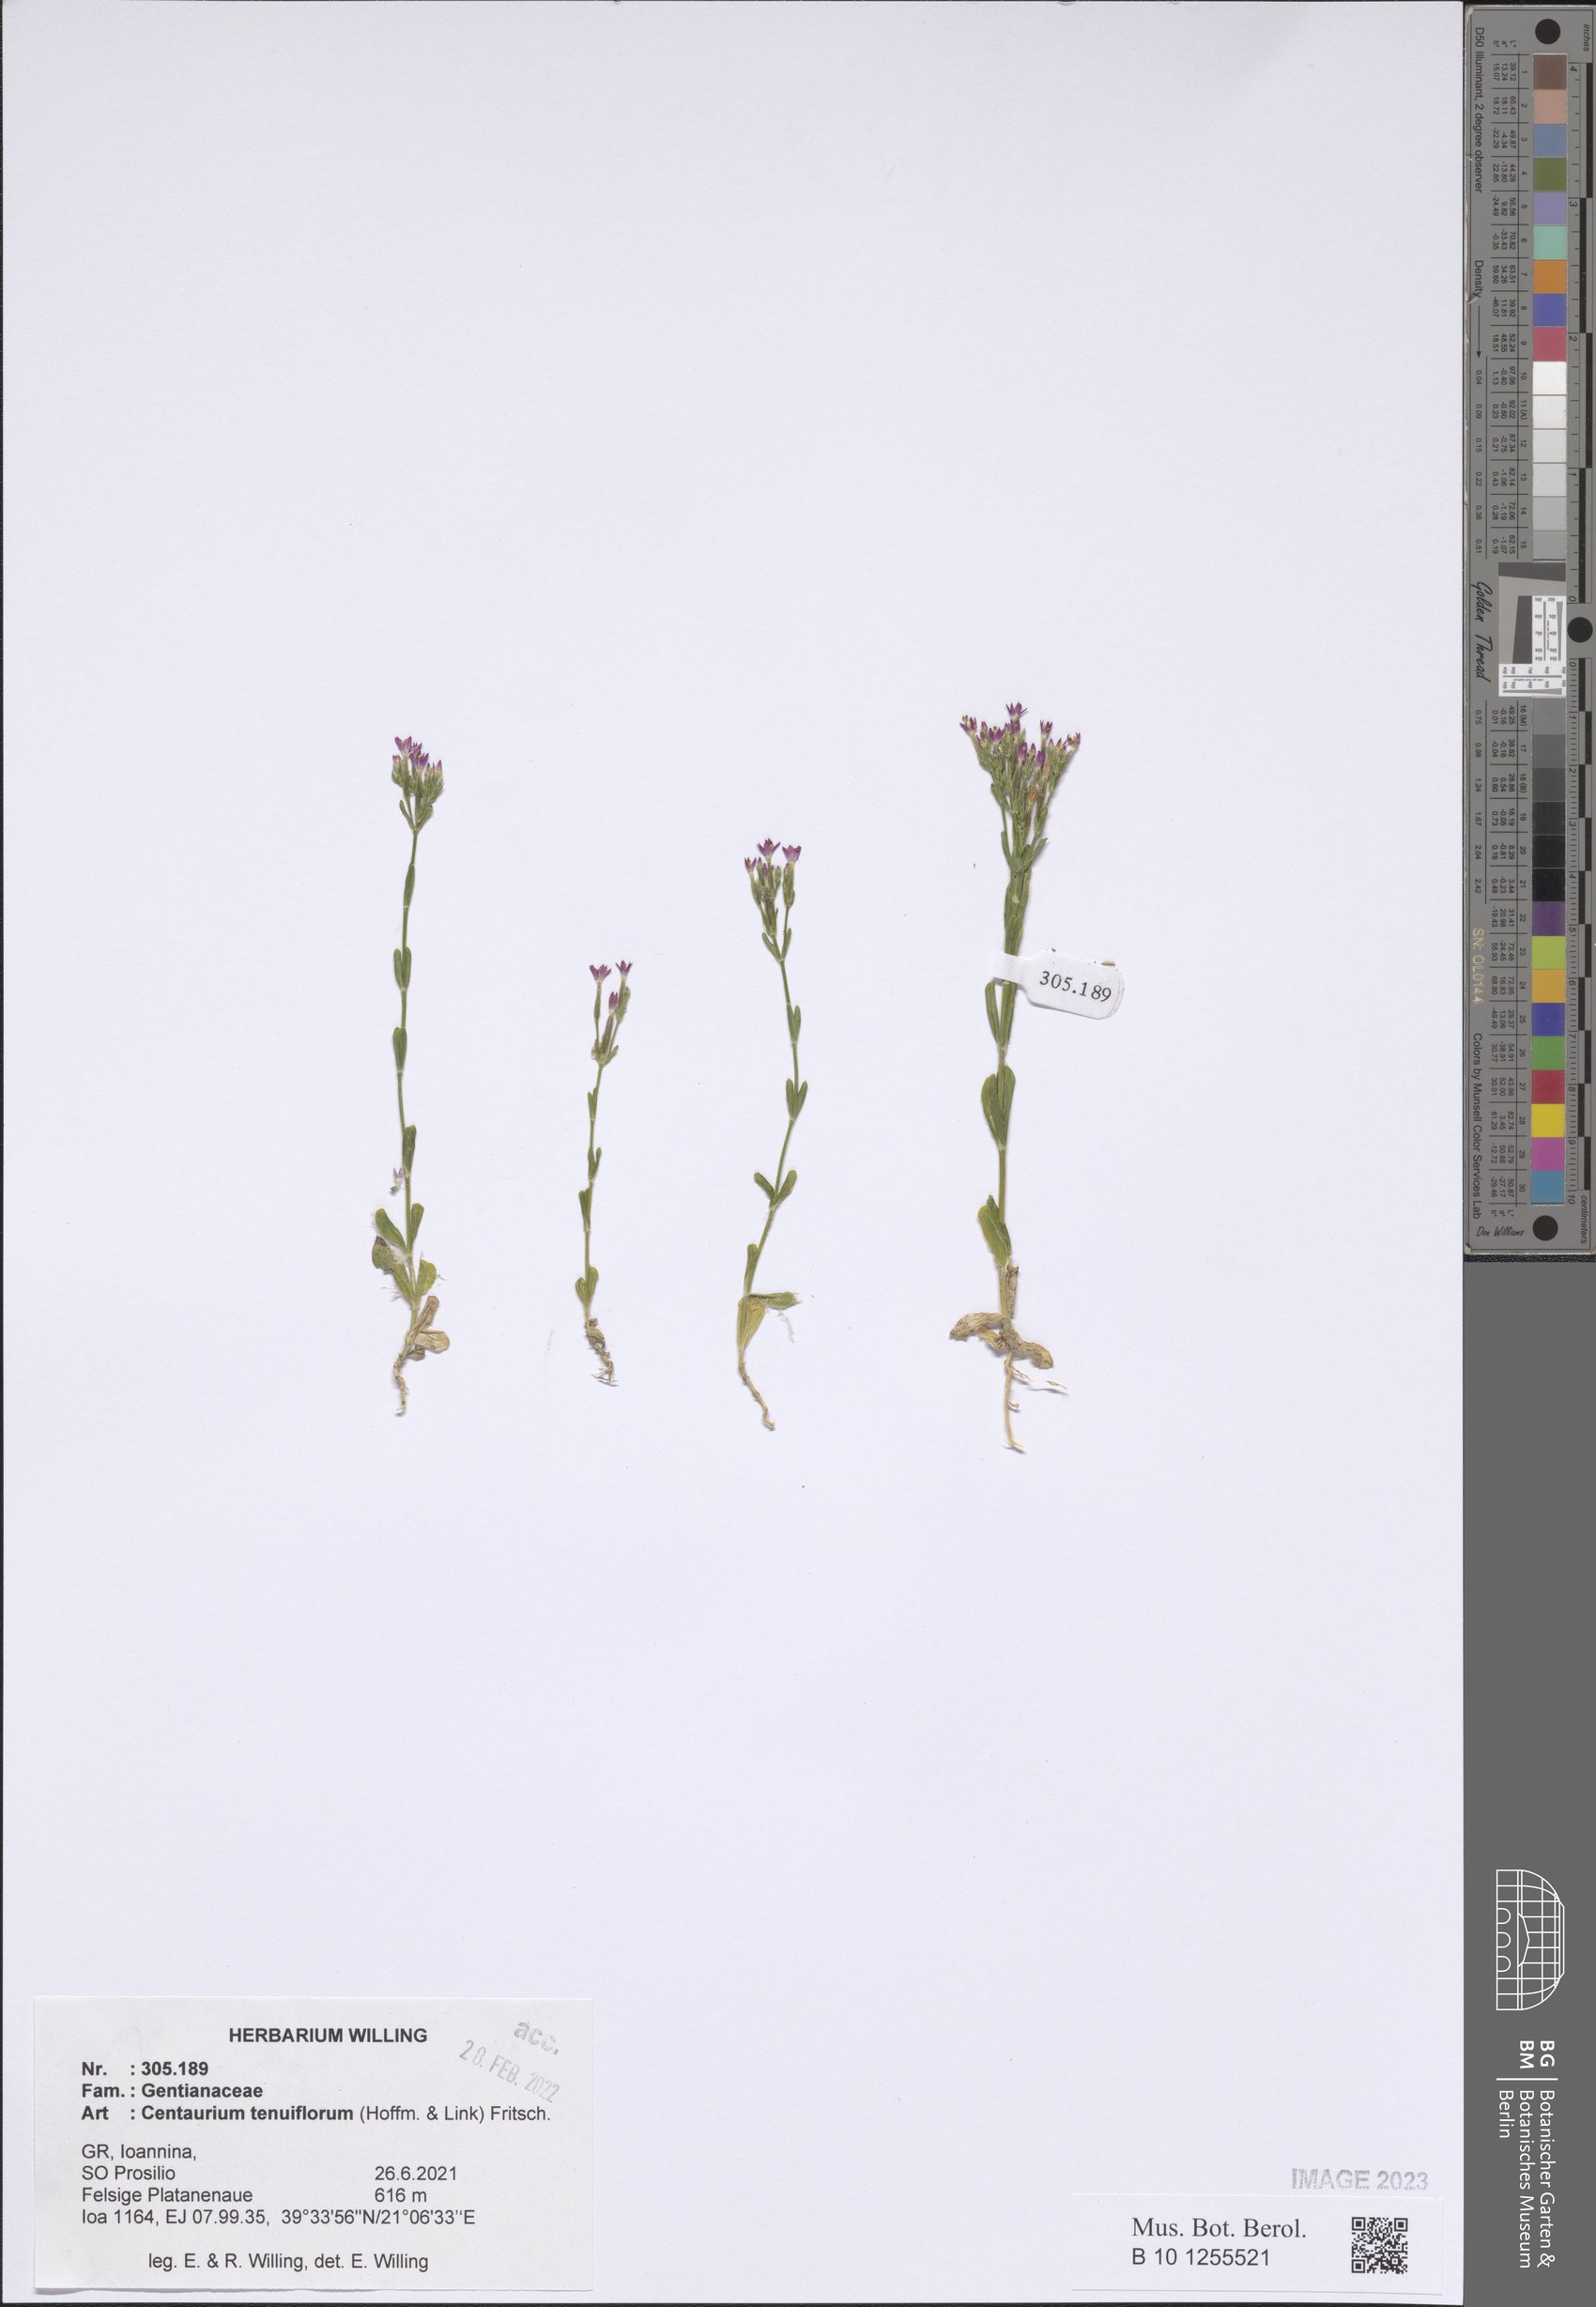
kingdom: Plantae
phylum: Tracheophyta
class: Magnoliopsida
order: Gentianales
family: Gentianaceae
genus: Centaurium
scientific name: Centaurium tenuiflorum
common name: Slender centaury
